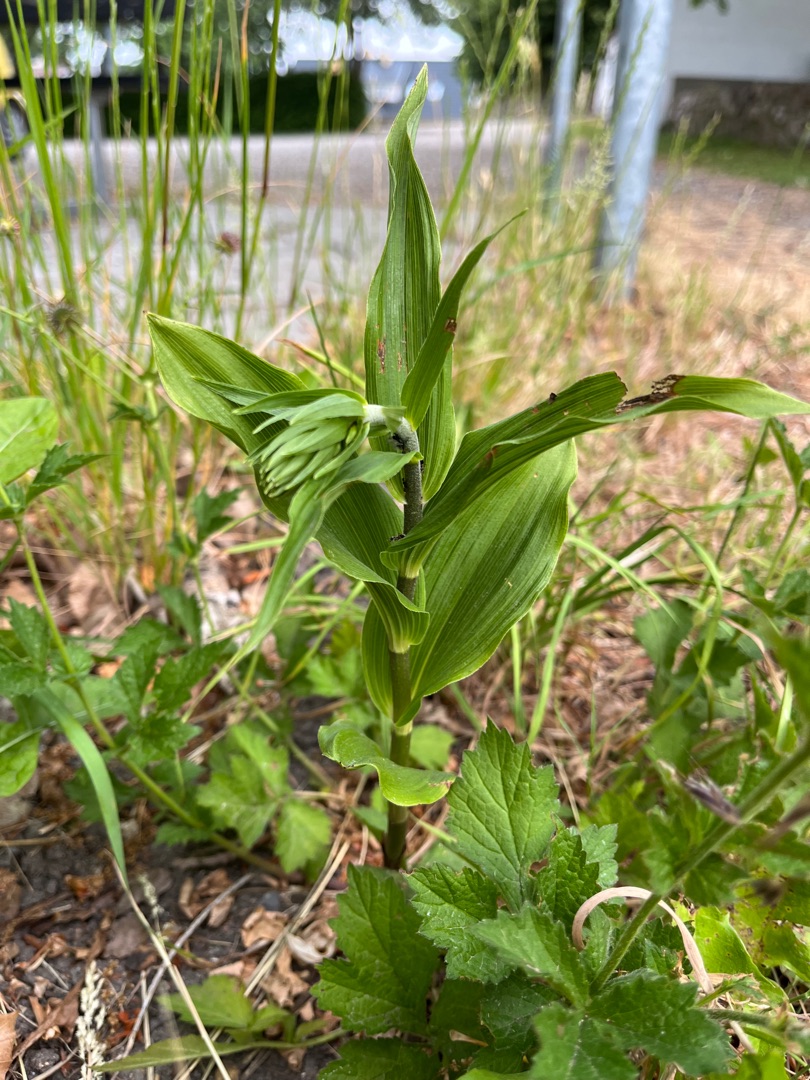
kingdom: Plantae
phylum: Tracheophyta
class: Liliopsida
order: Asparagales
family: Orchidaceae
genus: Epipactis
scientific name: Epipactis helleborine
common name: Skov-hullæbe
